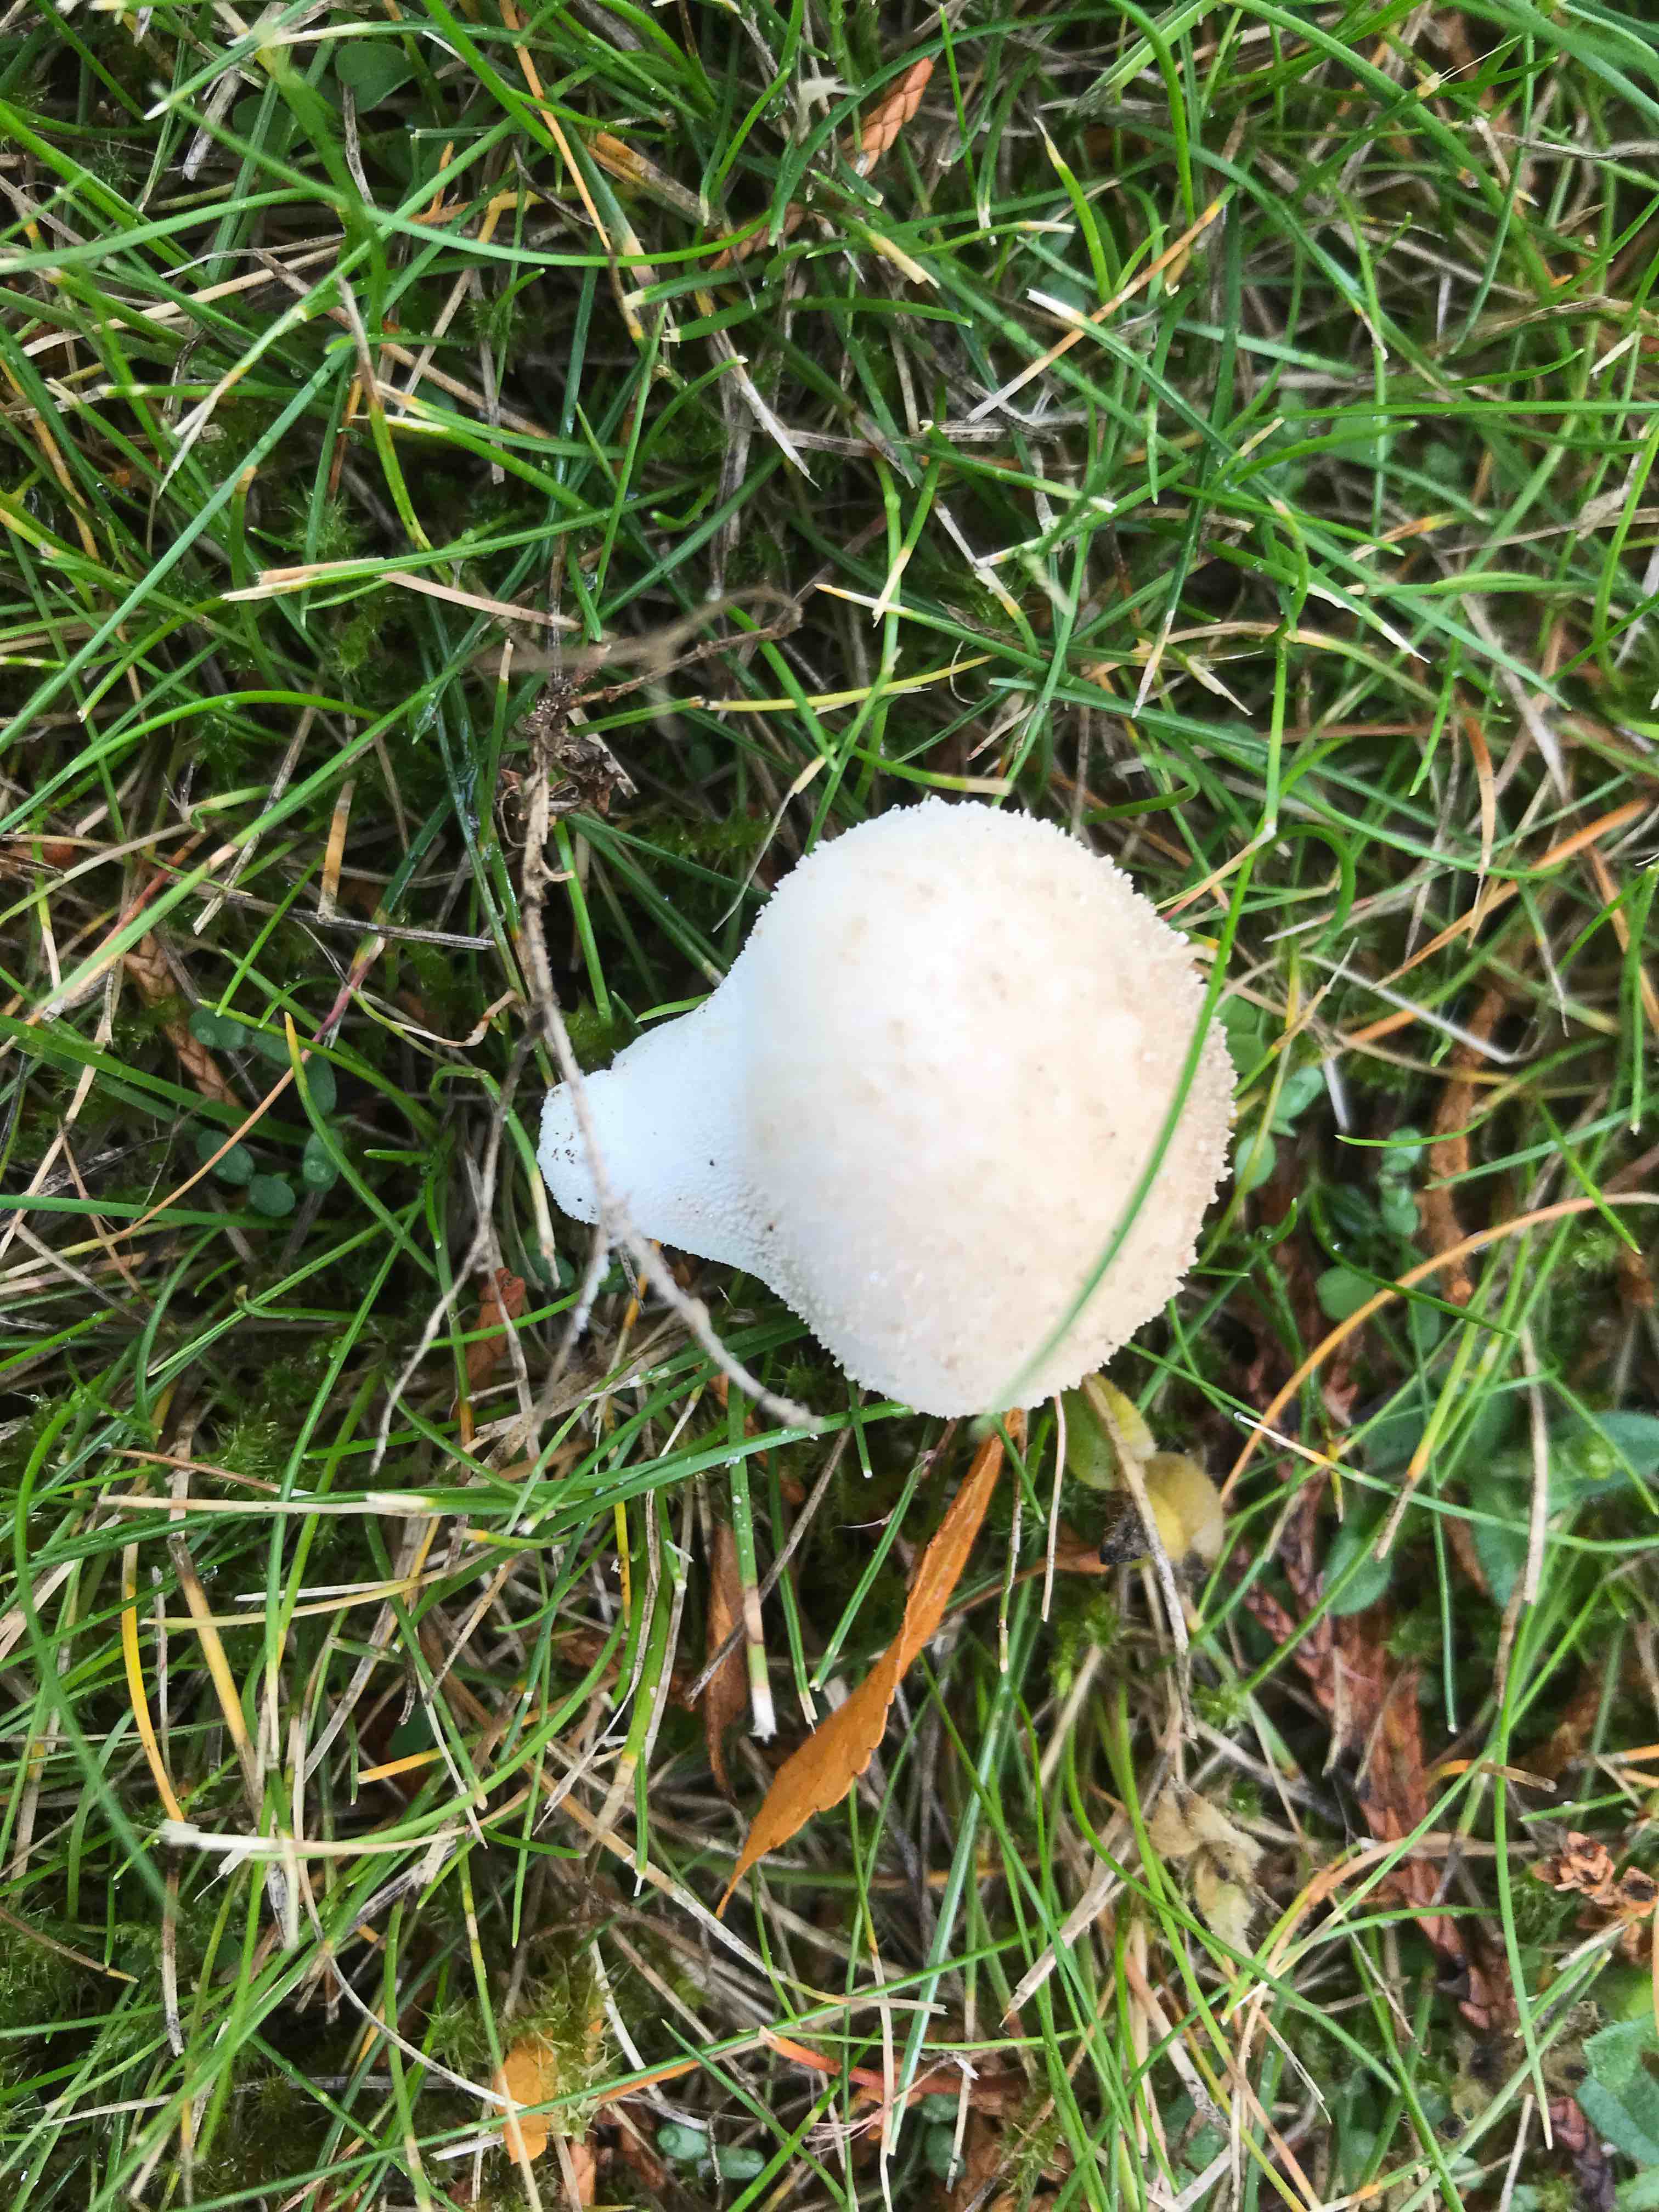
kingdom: Fungi
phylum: Basidiomycota
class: Agaricomycetes
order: Agaricales
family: Lycoperdaceae
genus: Lycoperdon
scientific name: Lycoperdon pratense
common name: flad støvbold
